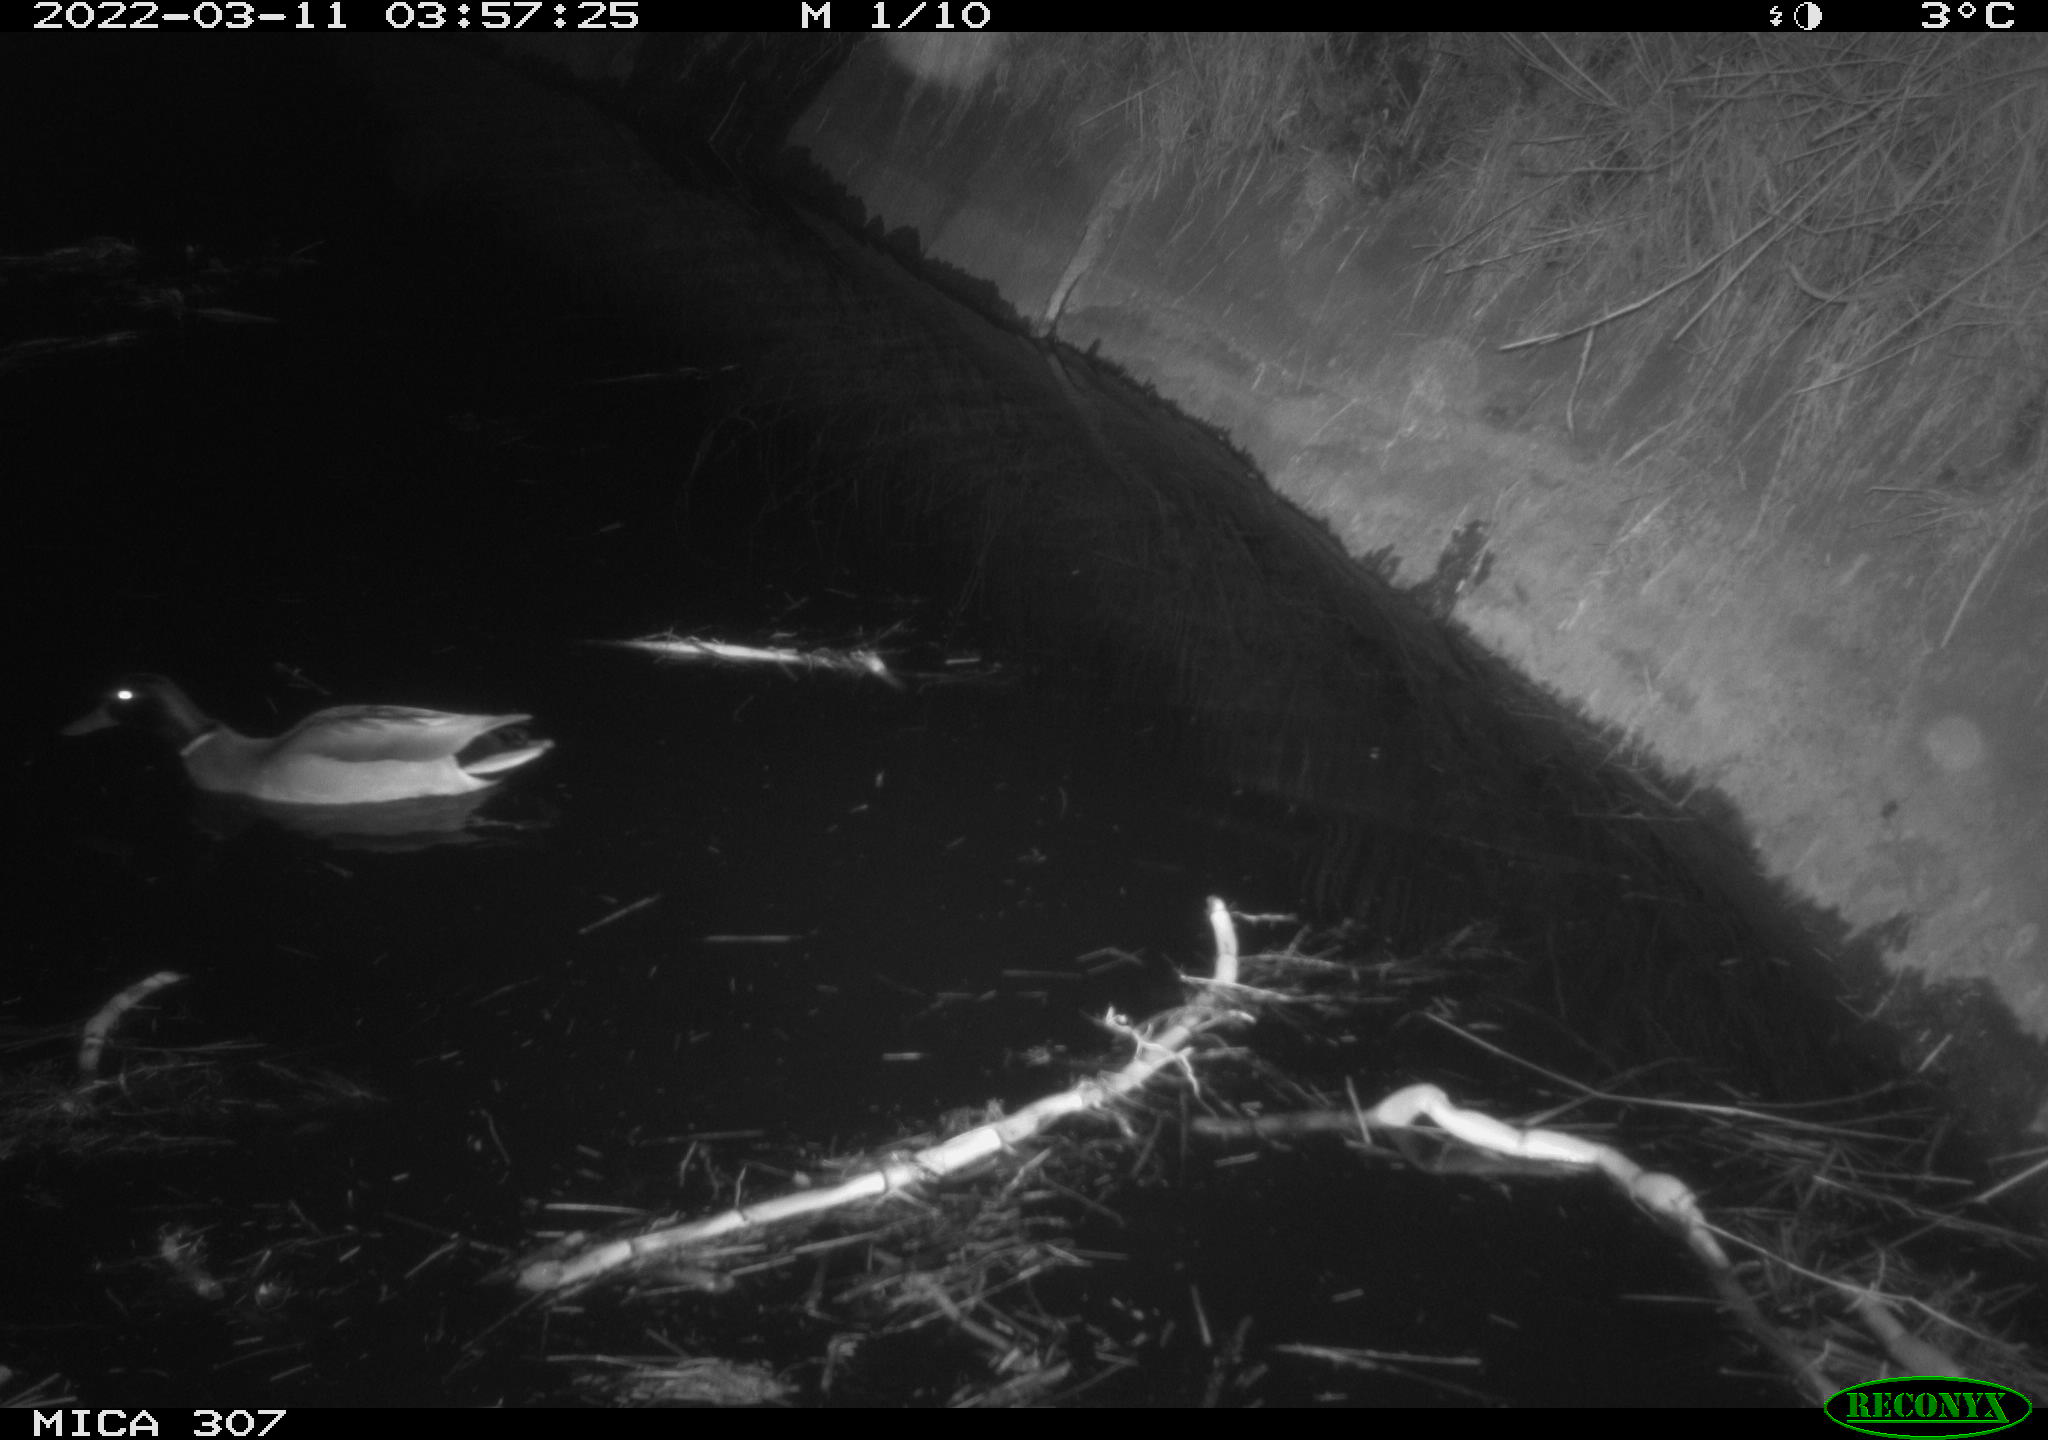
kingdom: Animalia
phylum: Chordata
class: Aves
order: Anseriformes
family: Anatidae
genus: Anas
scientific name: Anas platyrhynchos
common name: Mallard
